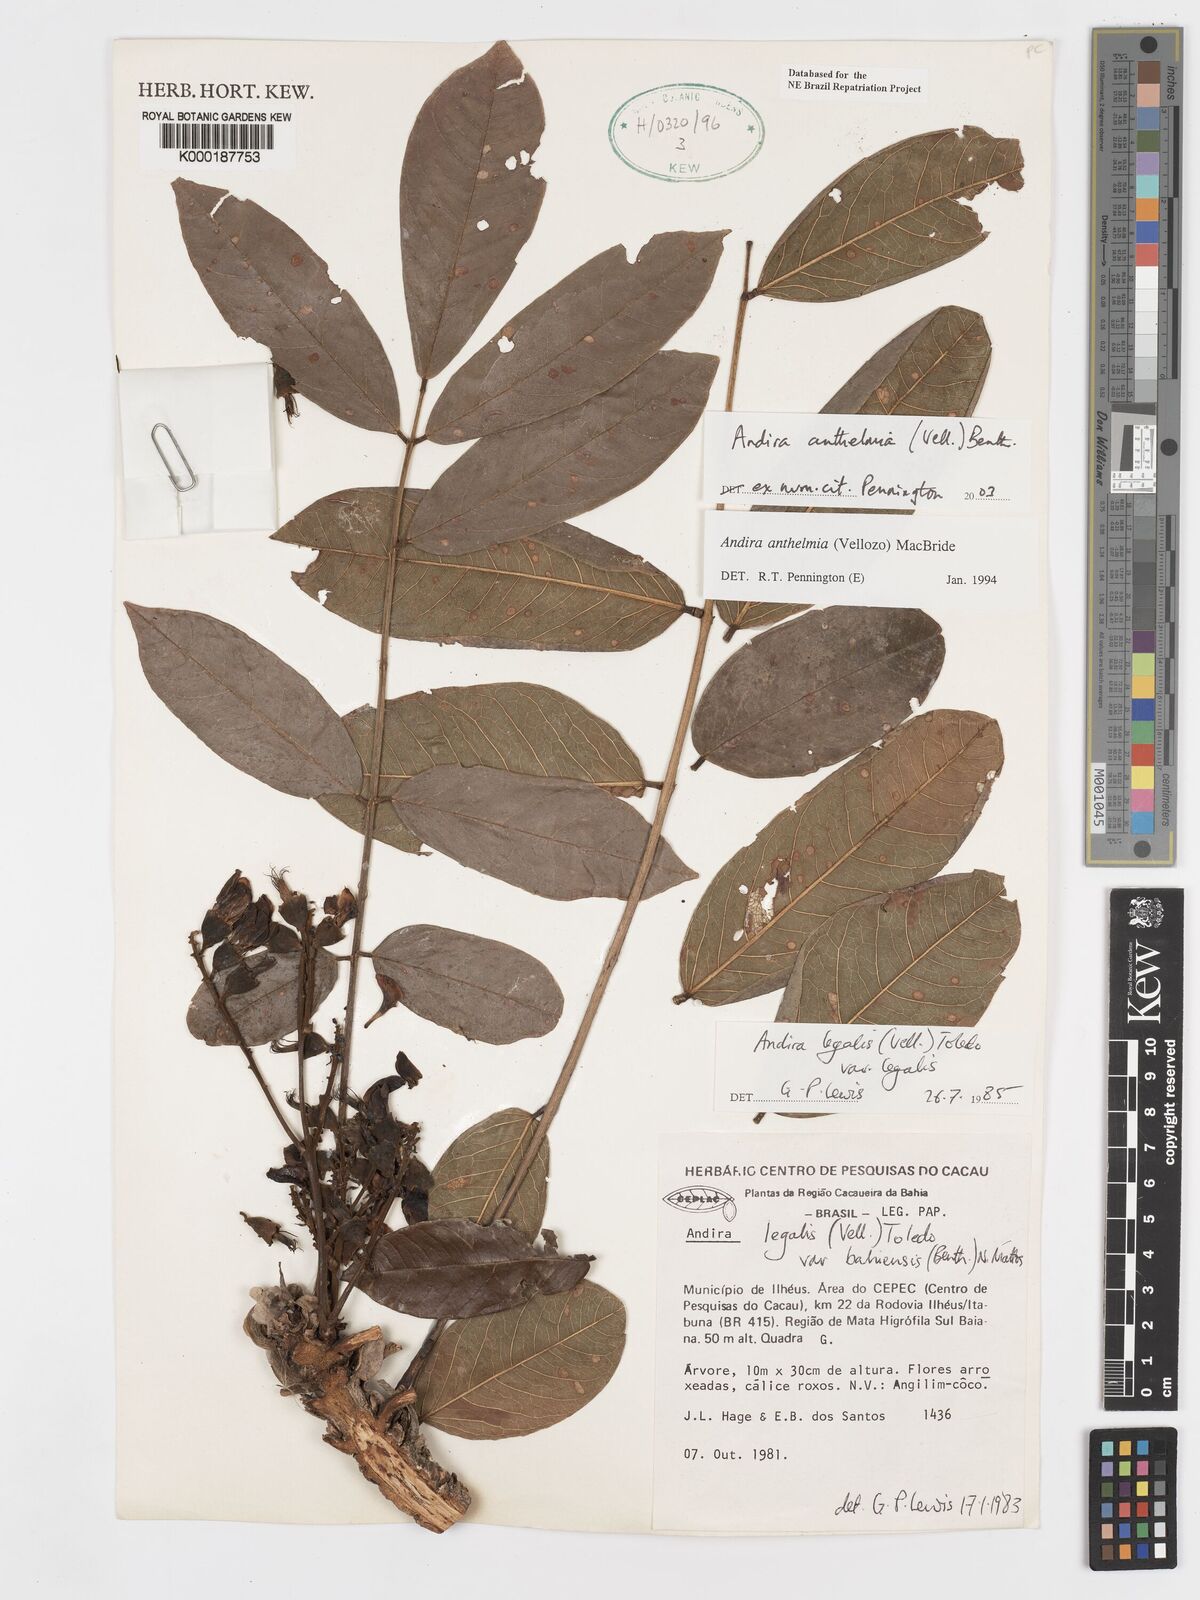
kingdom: Plantae
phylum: Tracheophyta
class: Magnoliopsida
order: Fabales
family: Fabaceae
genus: Andira
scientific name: Andira
